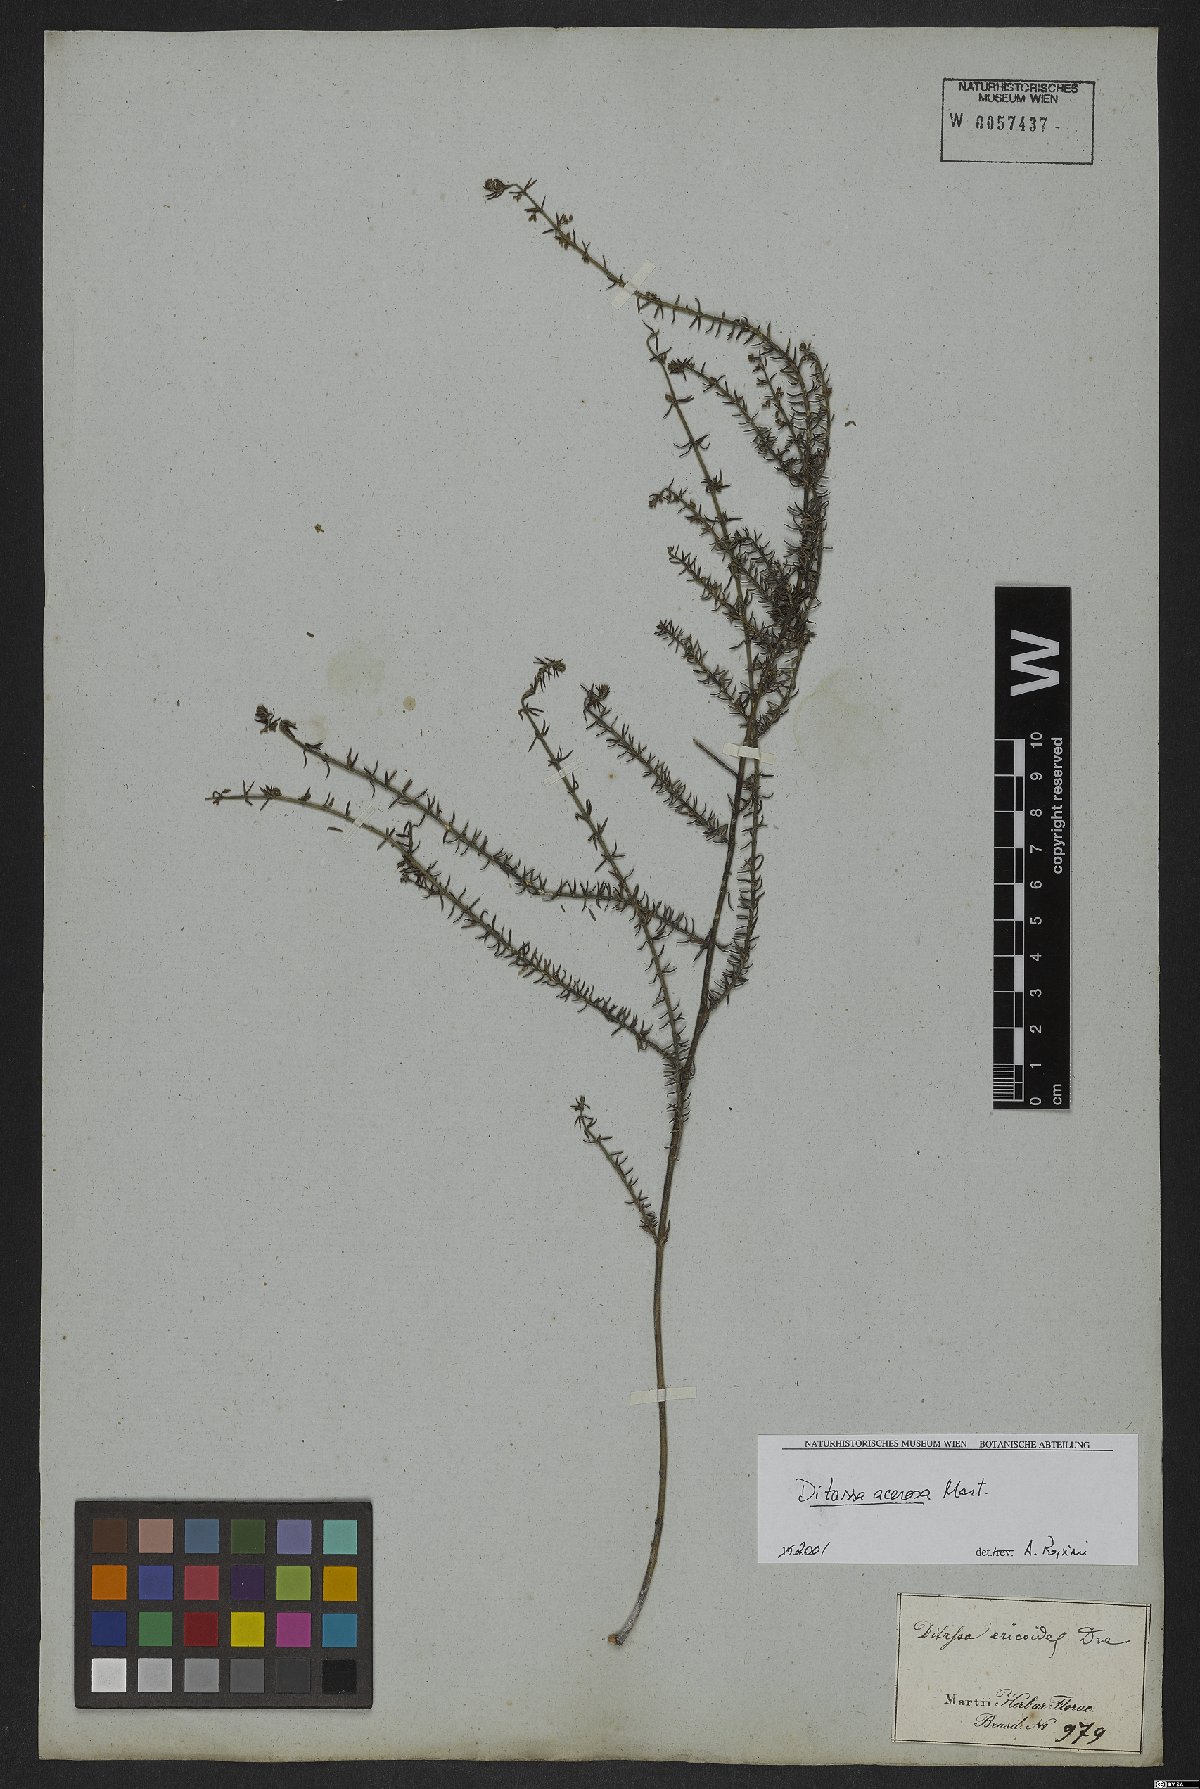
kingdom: Plantae
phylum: Tracheophyta
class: Magnoliopsida
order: Gentianales
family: Apocynaceae
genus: Minaria
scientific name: Minaria acerosa
